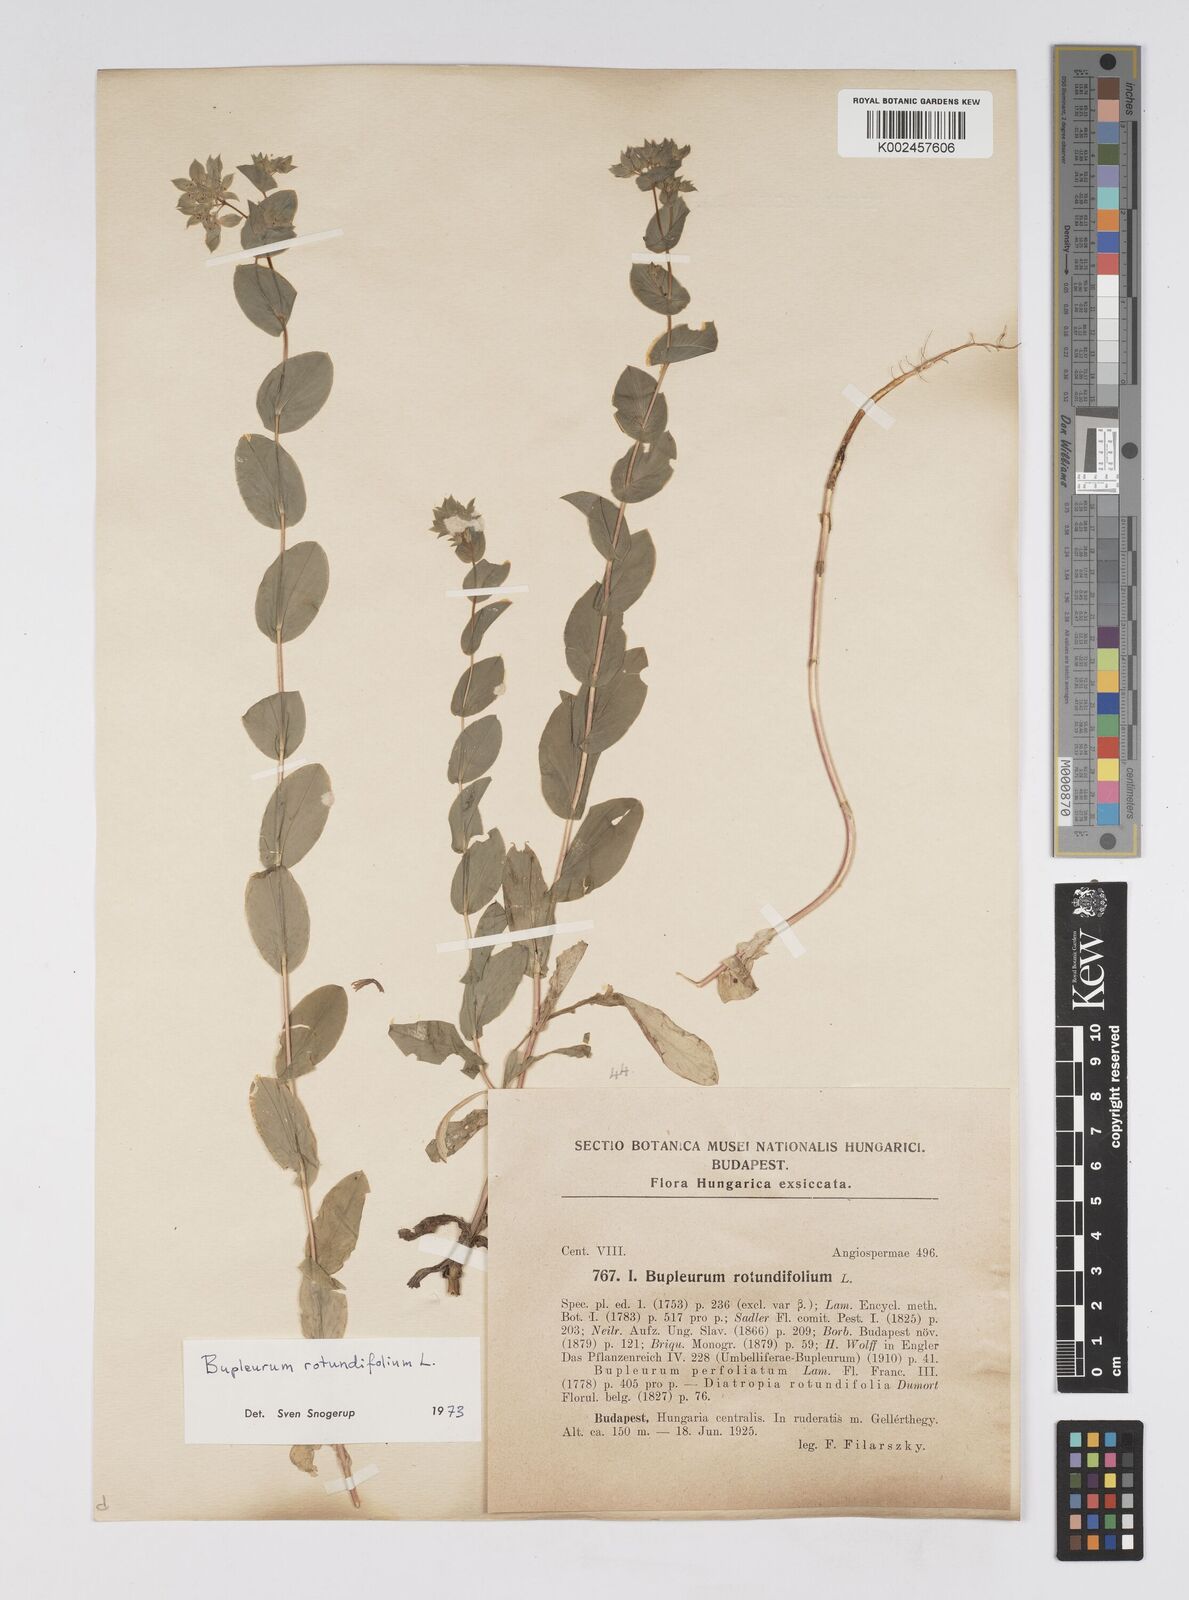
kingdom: Plantae
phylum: Tracheophyta
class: Magnoliopsida
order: Apiales
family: Apiaceae
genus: Bupleurum
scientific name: Bupleurum rotundifolium
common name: Thorow-wax
